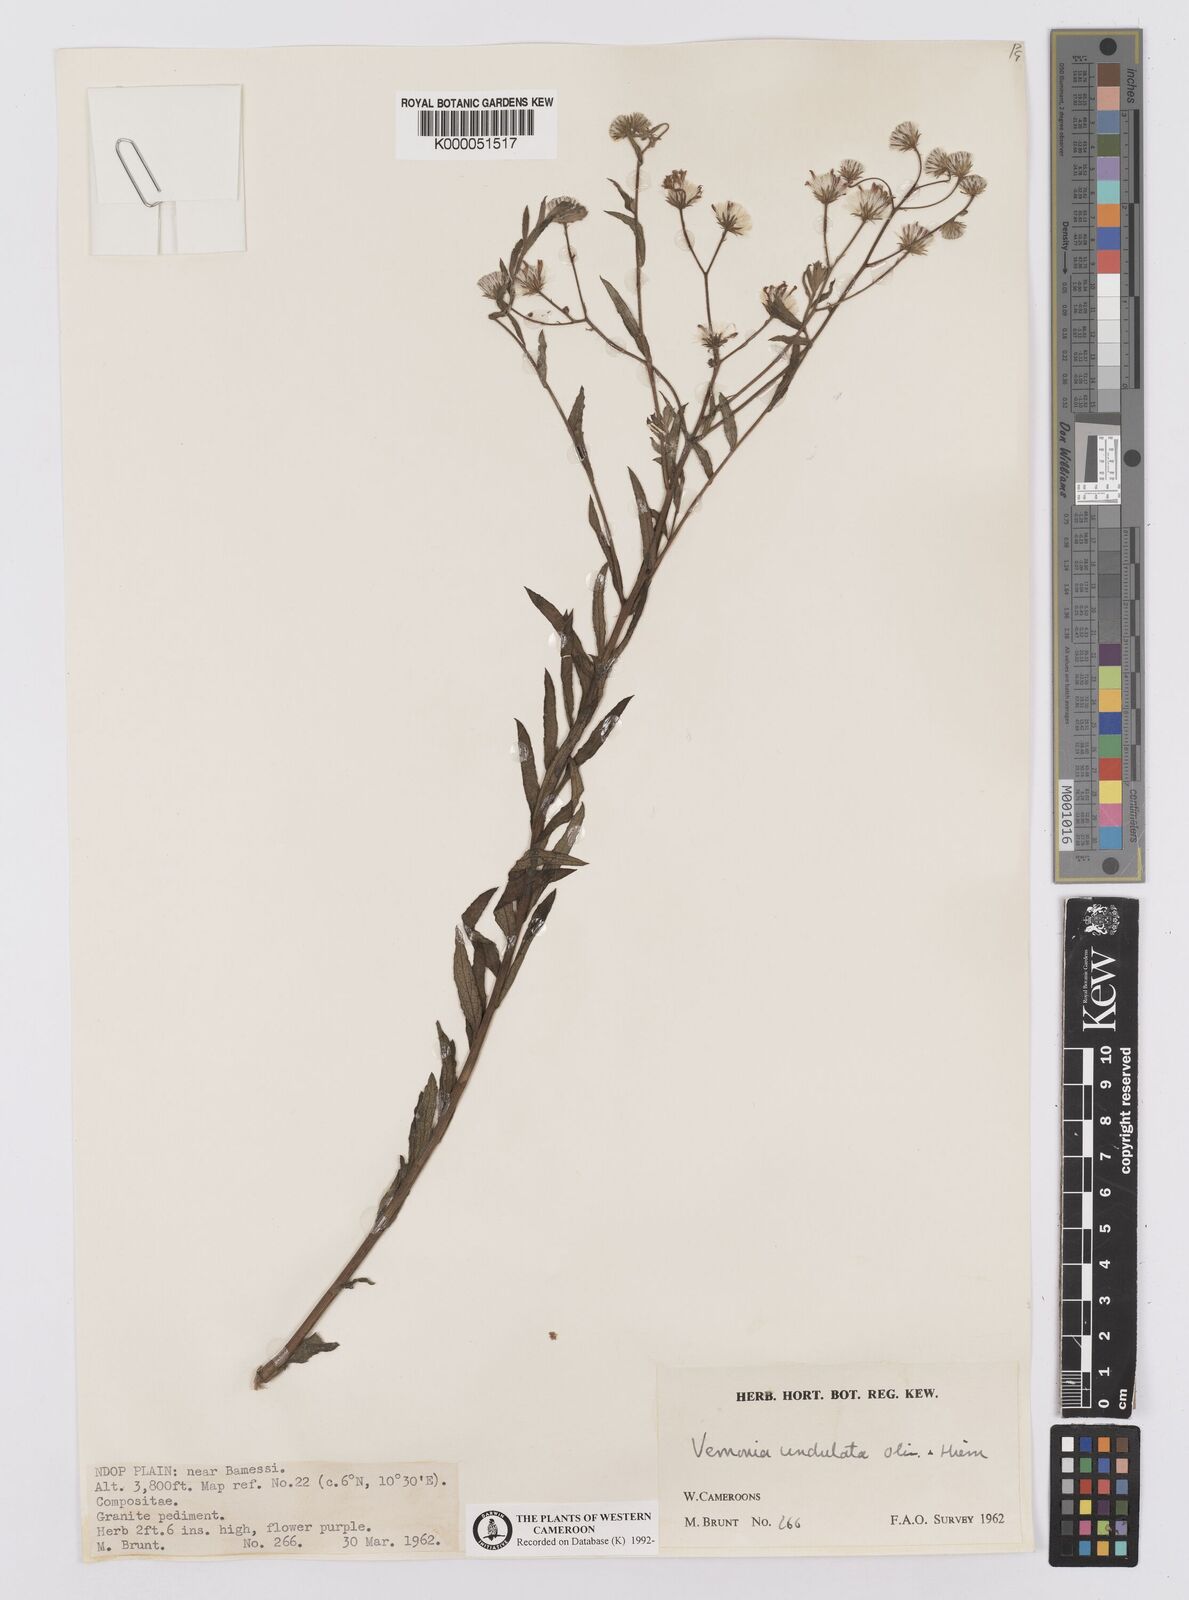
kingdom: Plantae
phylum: Tracheophyta
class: Magnoliopsida
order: Asterales
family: Asteraceae
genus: Vernonia
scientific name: Vernonia golungensis
